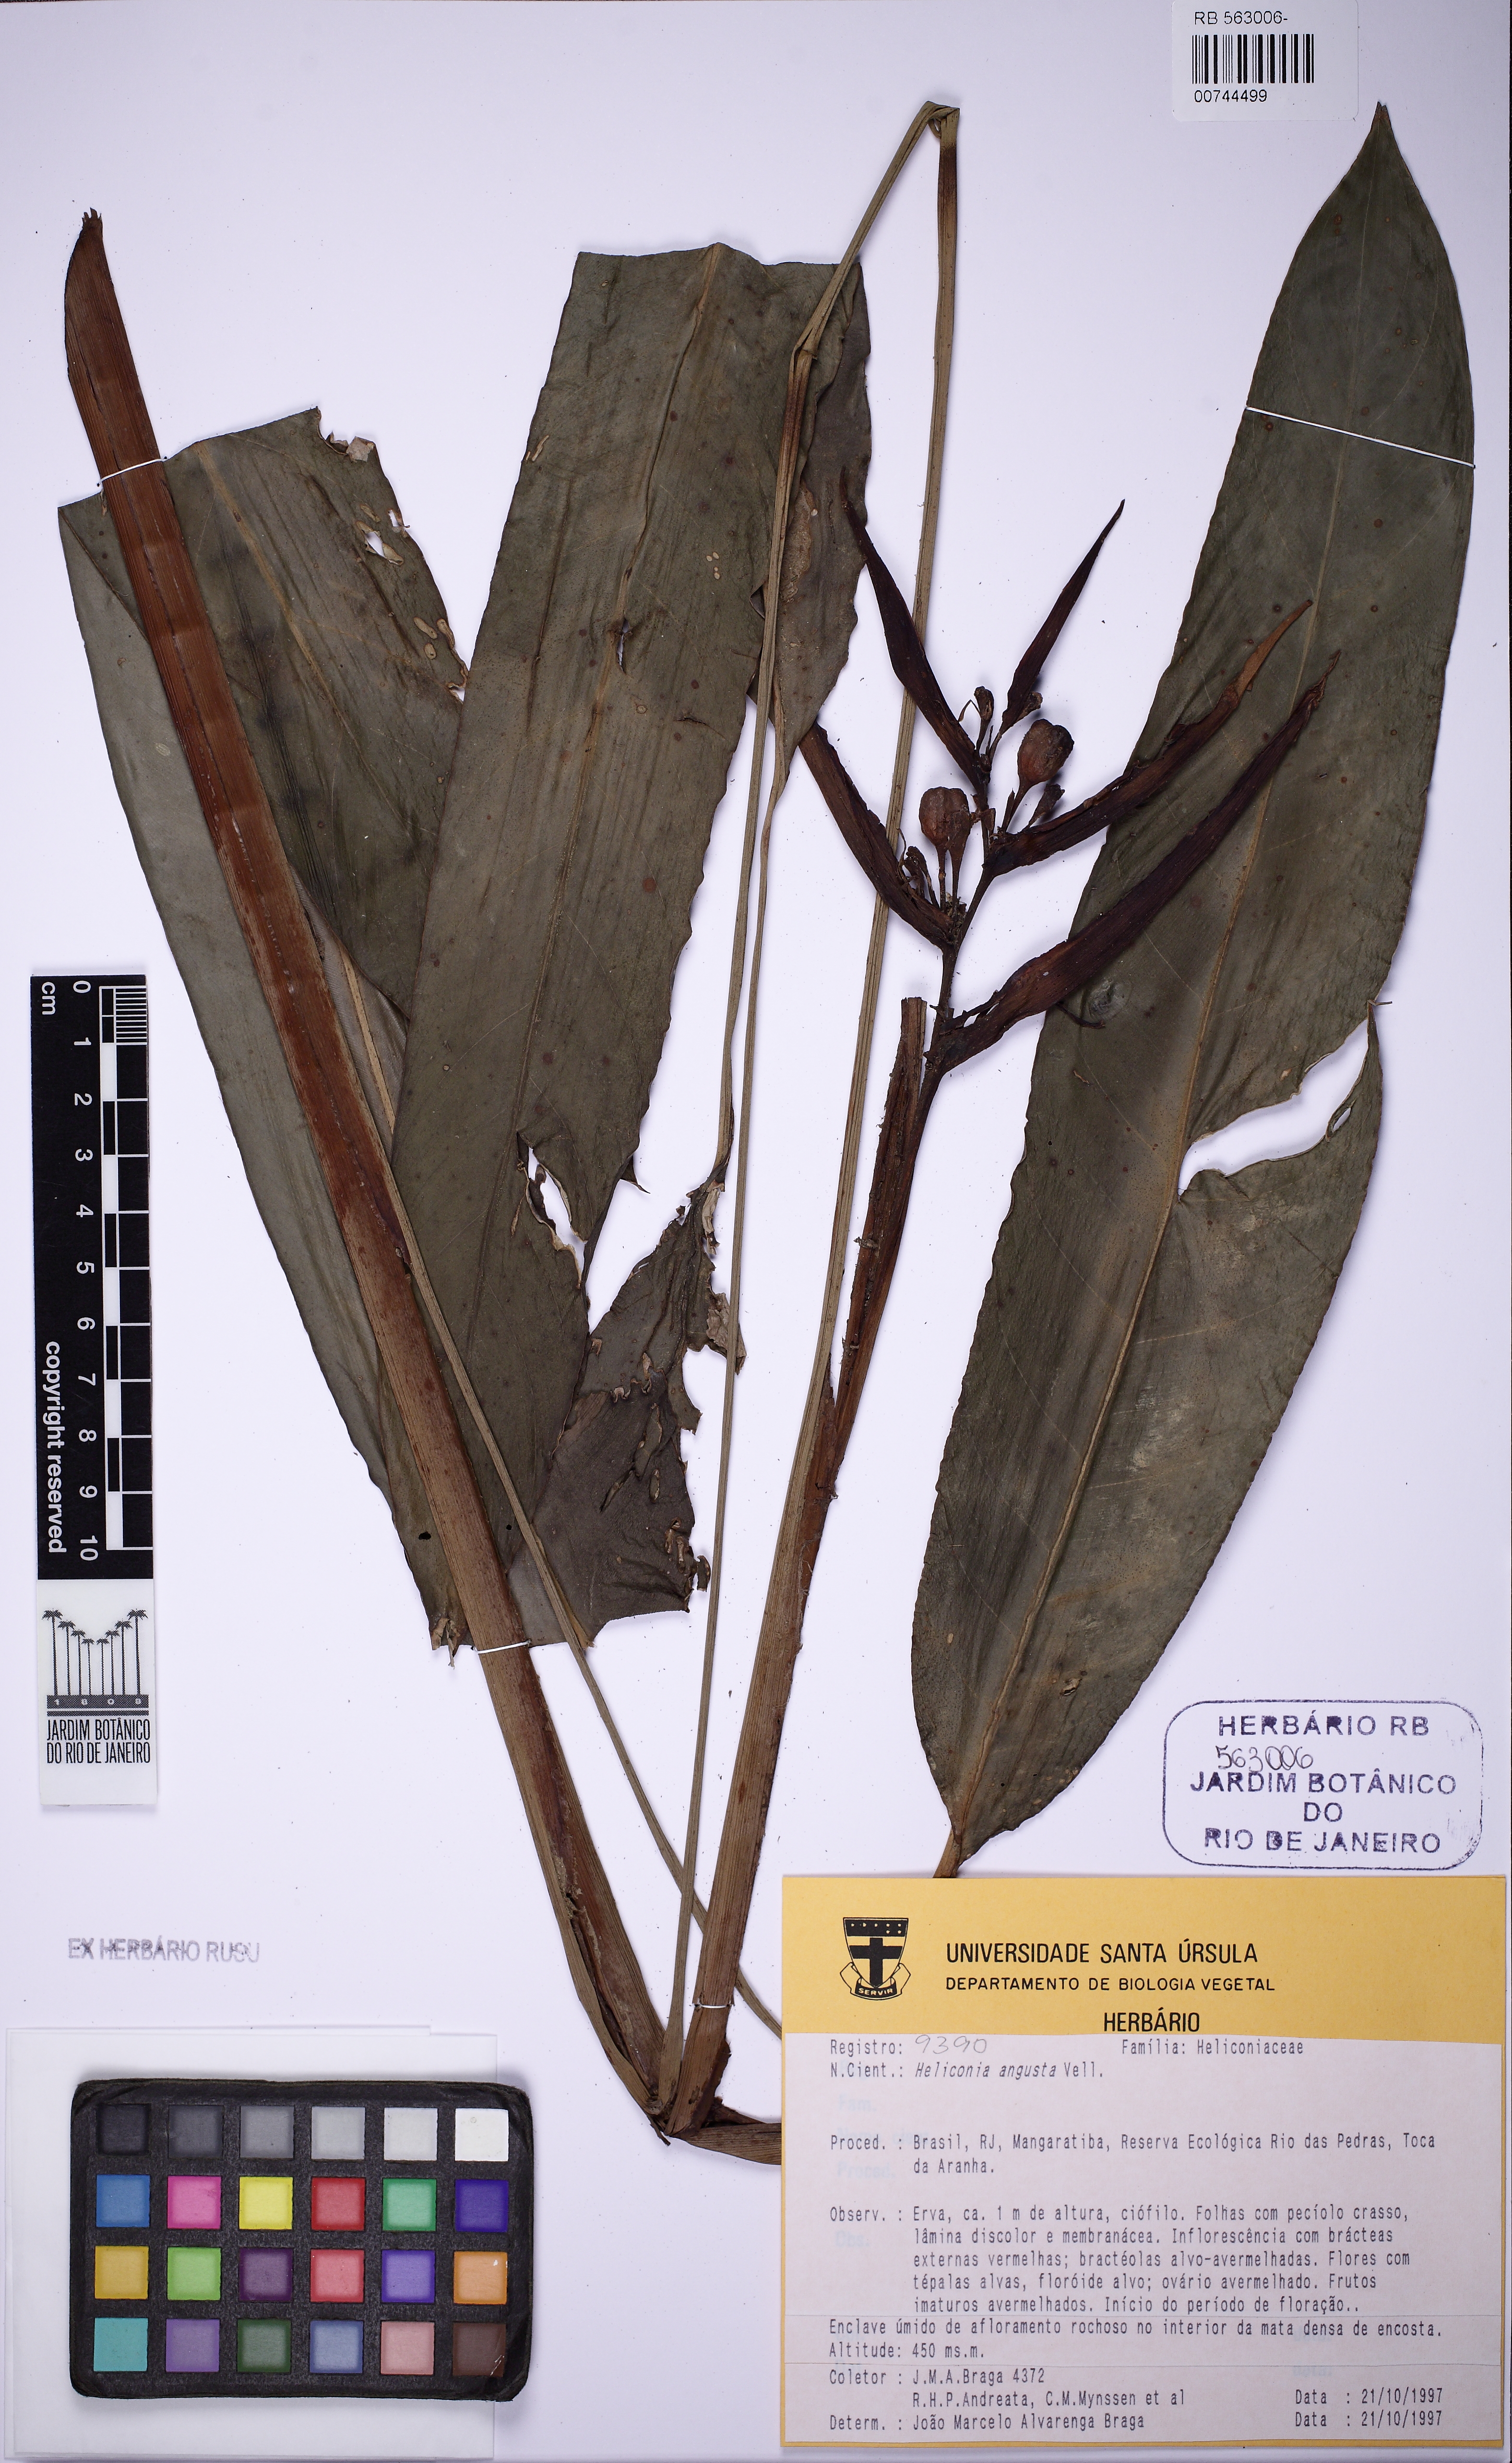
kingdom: Plantae
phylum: Tracheophyta
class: Liliopsida
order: Zingiberales
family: Heliconiaceae
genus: Heliconia
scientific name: Heliconia angusta
